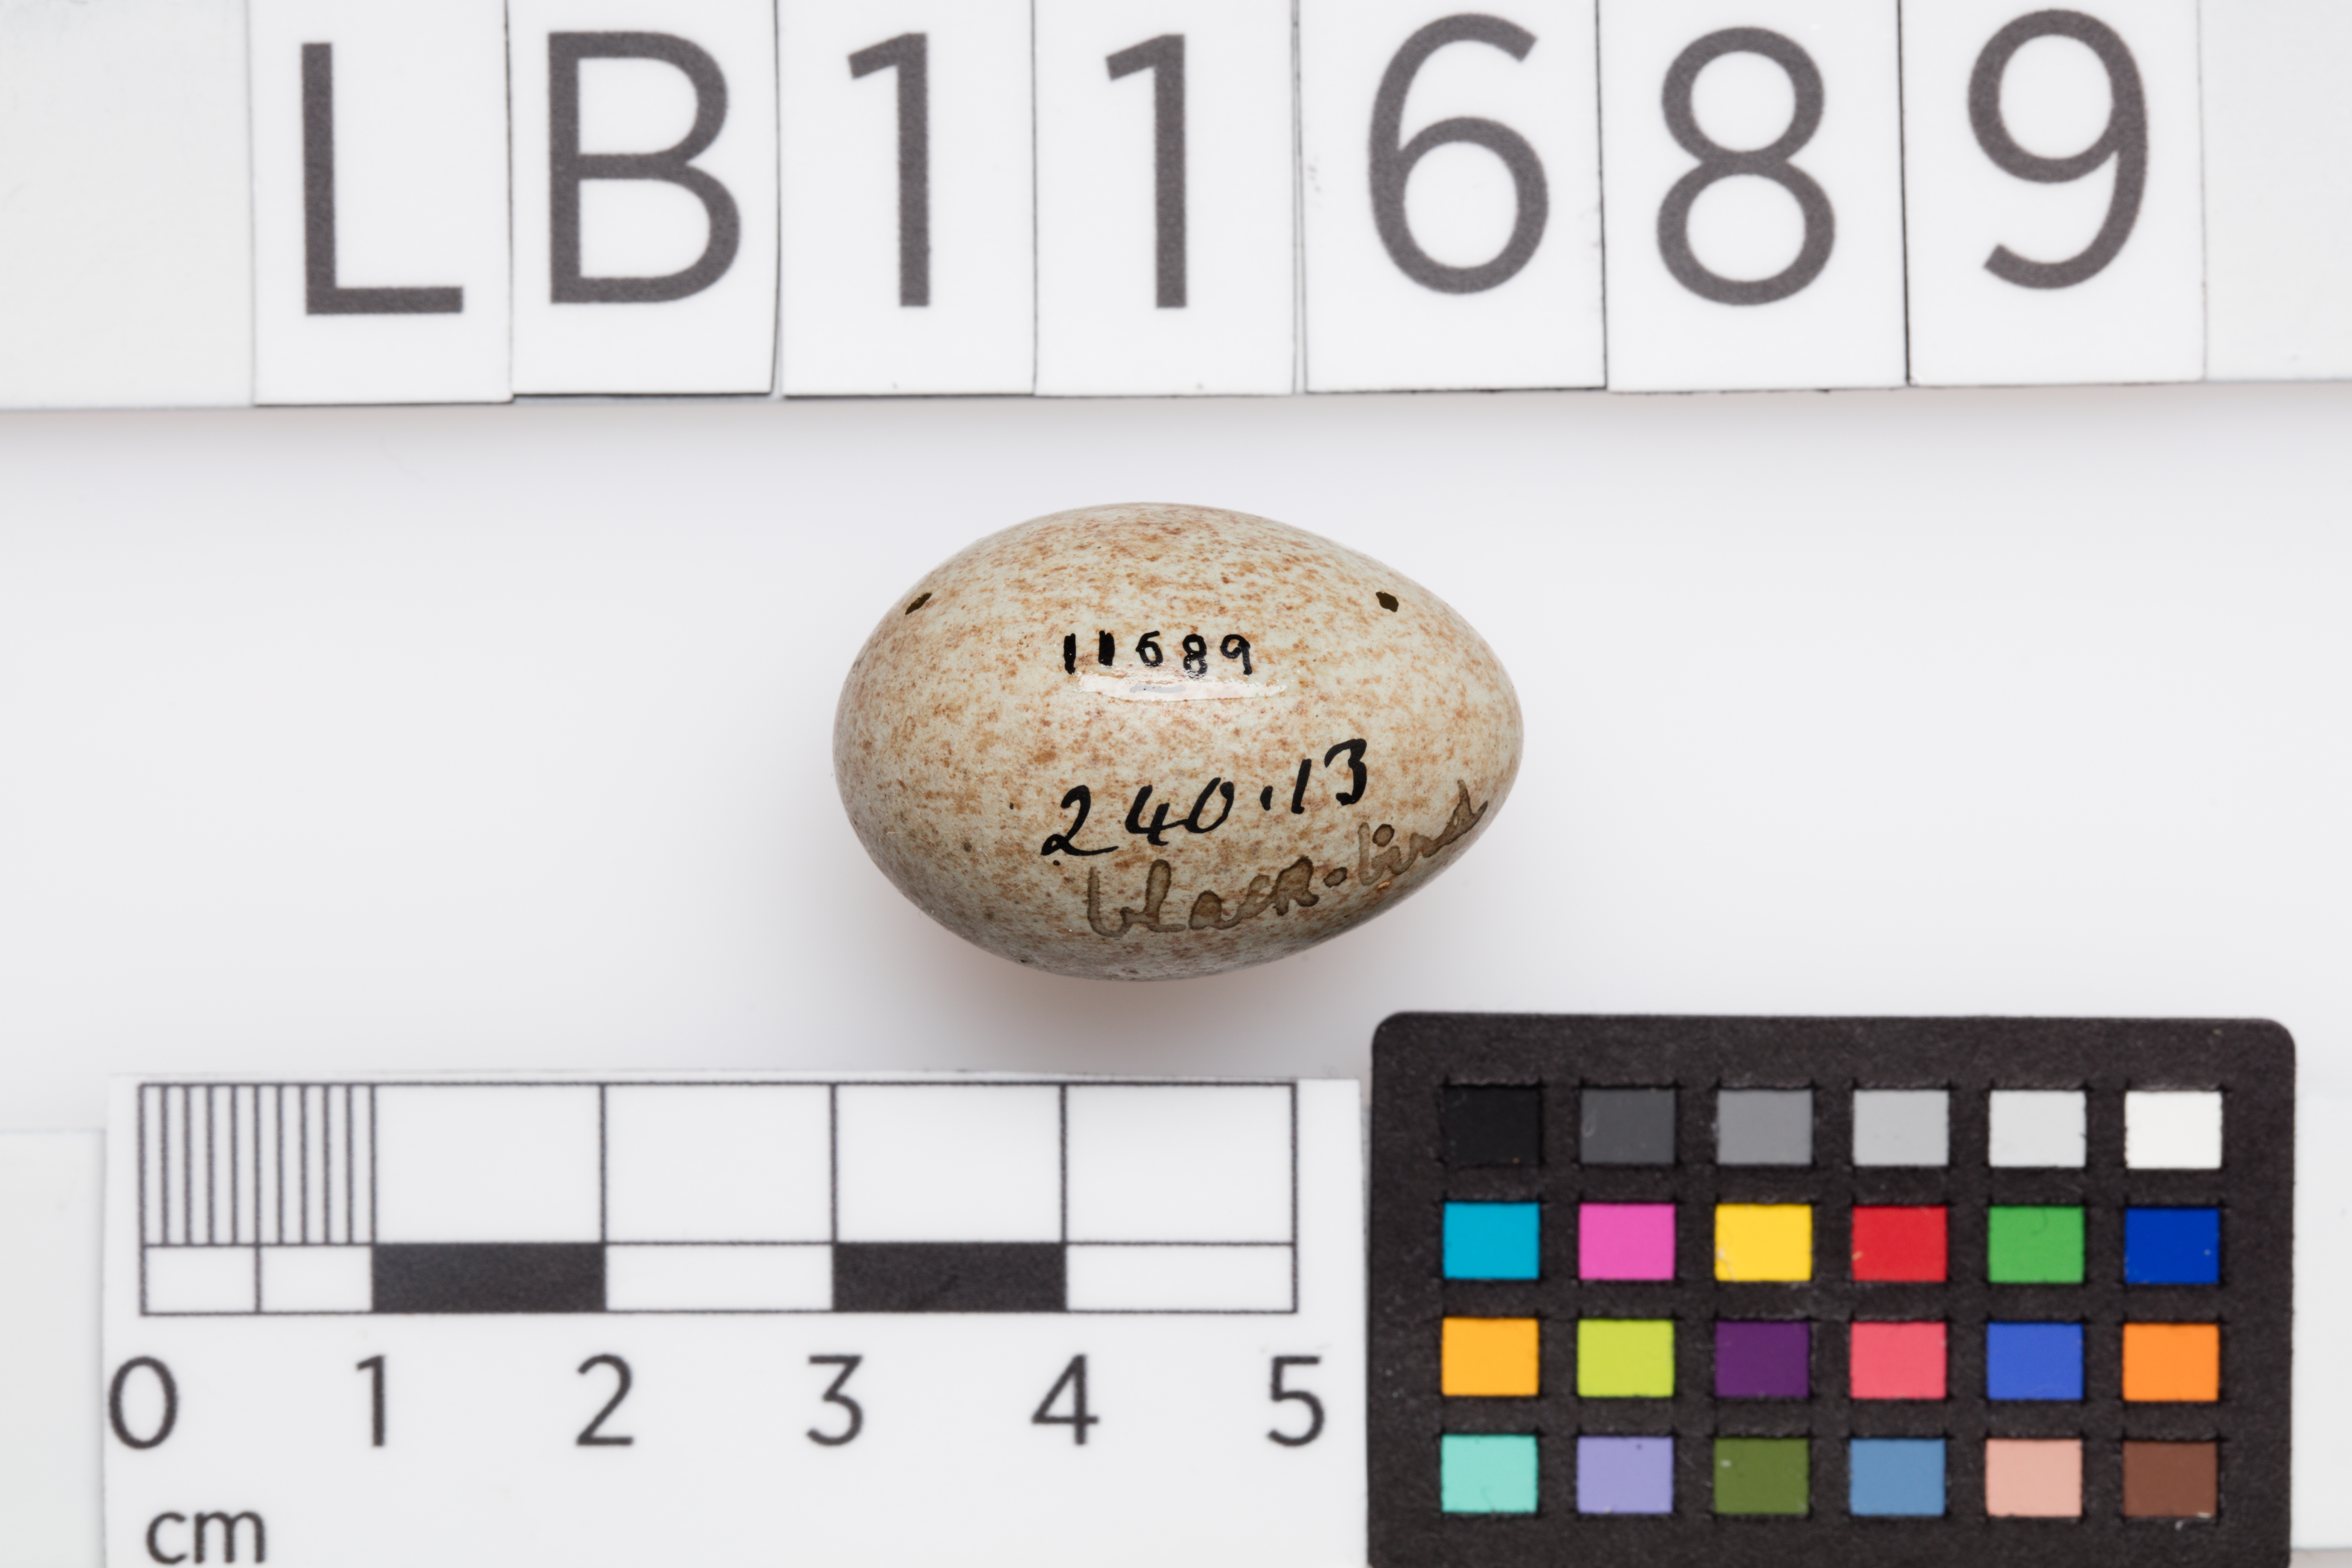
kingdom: Animalia
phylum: Chordata
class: Aves
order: Passeriformes
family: Turdidae
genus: Turdus
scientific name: Turdus merula
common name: Common blackbird
